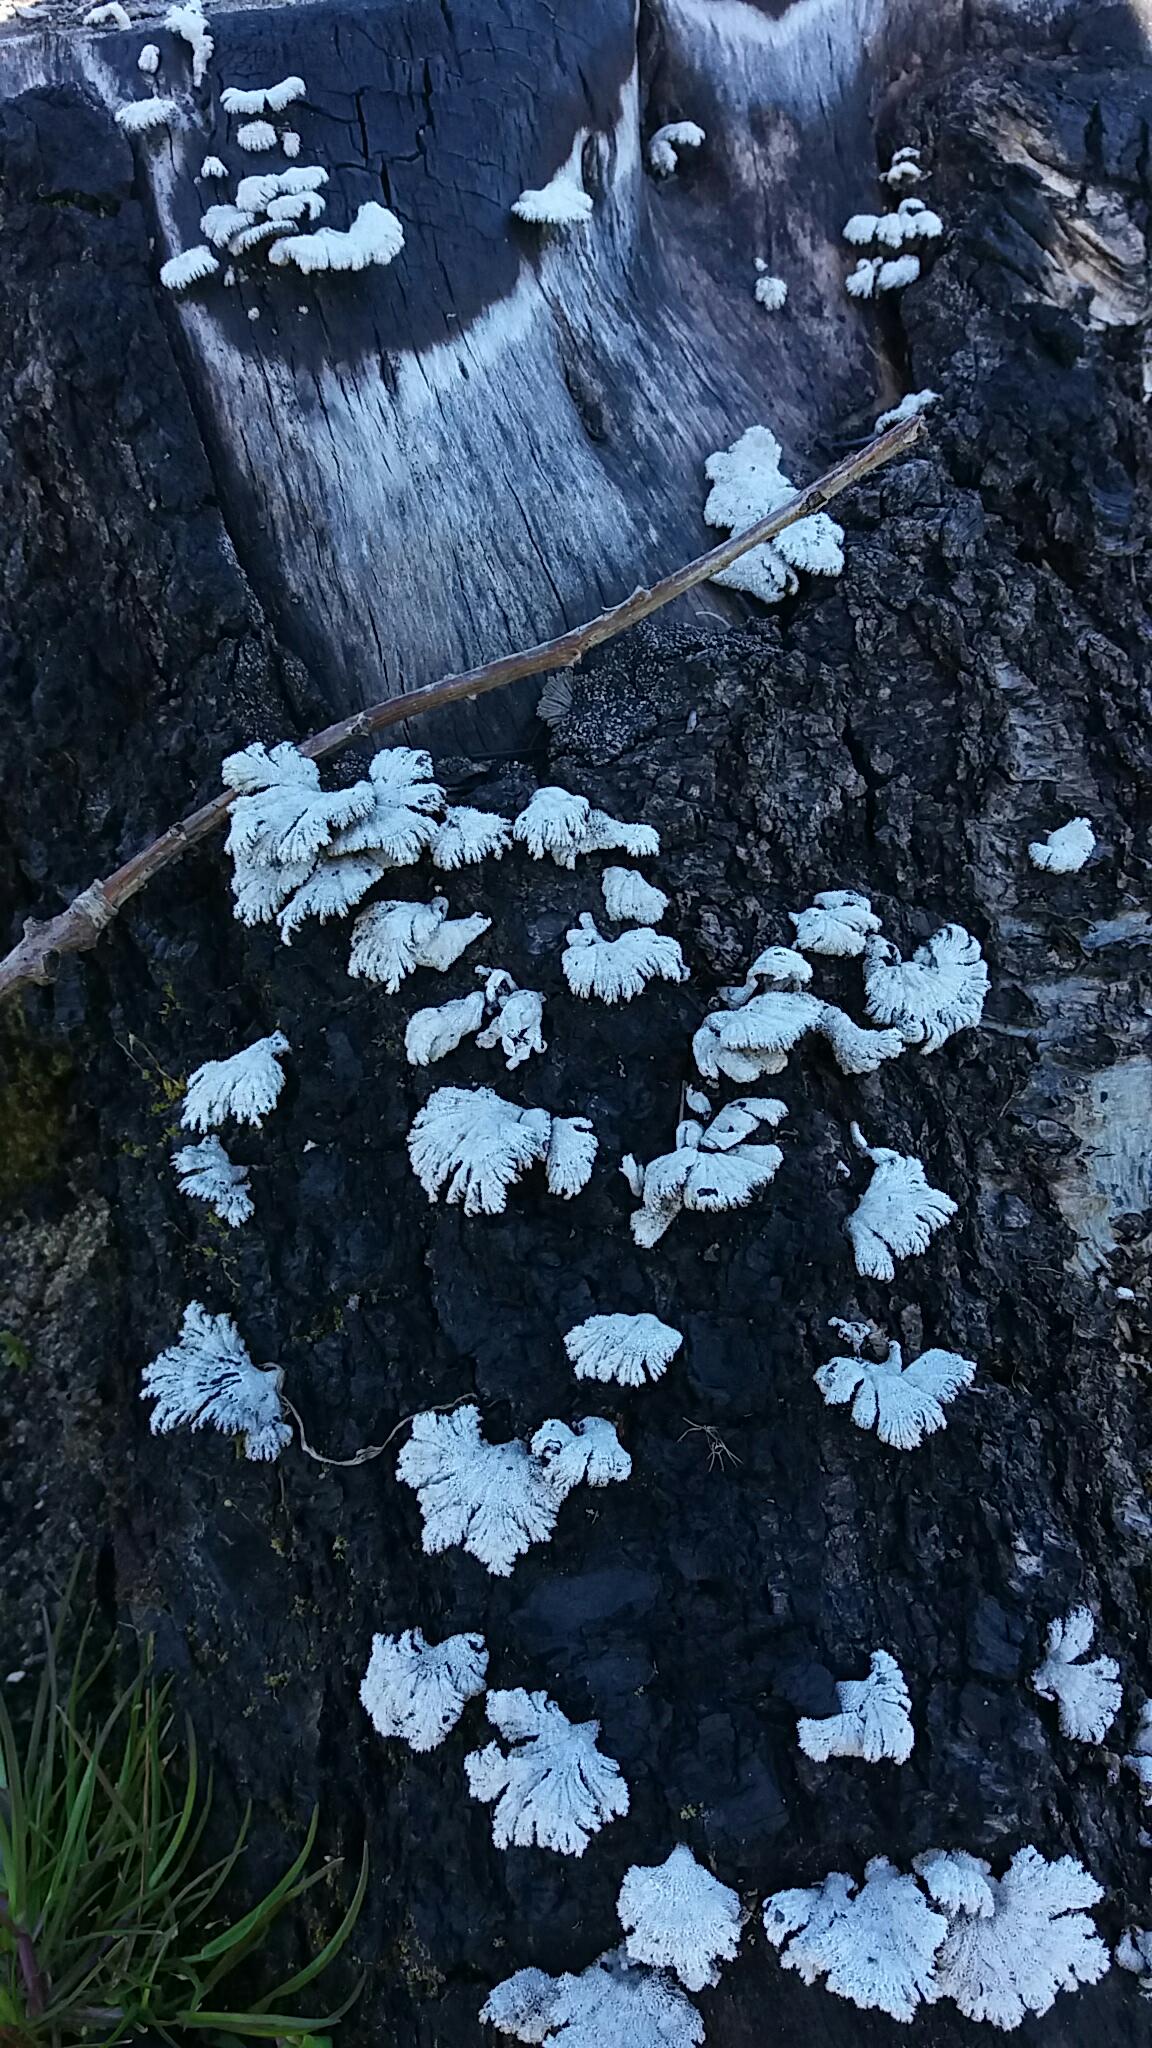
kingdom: Fungi
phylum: Basidiomycota
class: Agaricomycetes
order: Agaricales
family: Schizophyllaceae
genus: Schizophyllum
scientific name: Schizophyllum commune
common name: kløvblad
